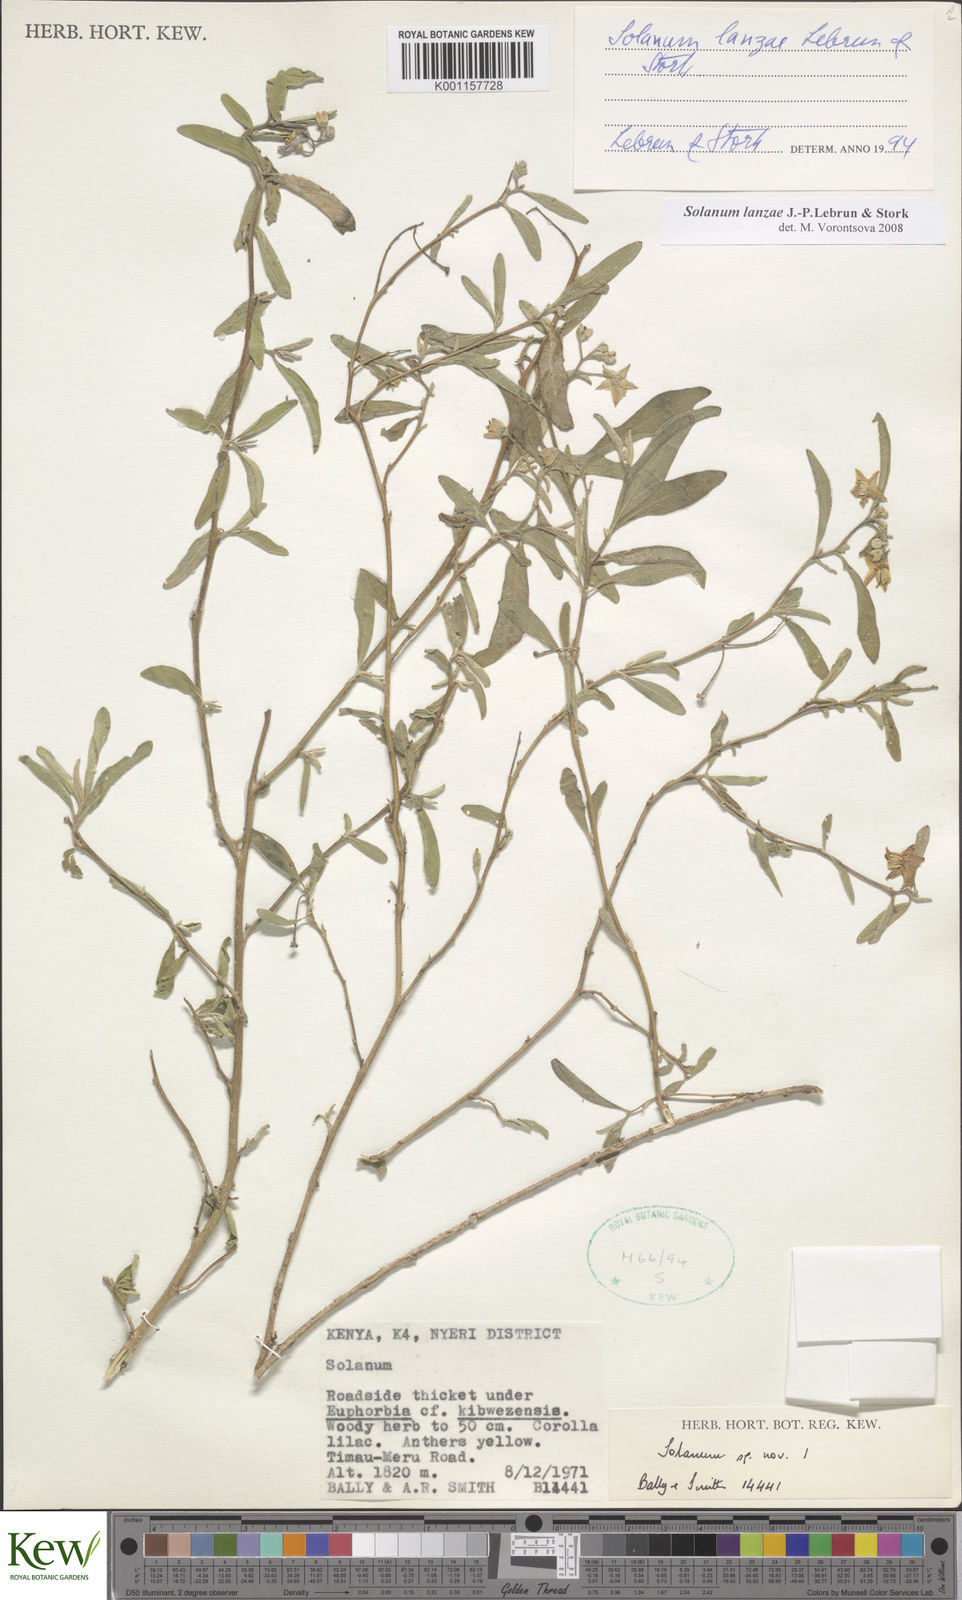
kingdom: Plantae
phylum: Tracheophyta
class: Magnoliopsida
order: Solanales
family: Solanaceae
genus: Solanum
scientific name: Solanum lanzae
